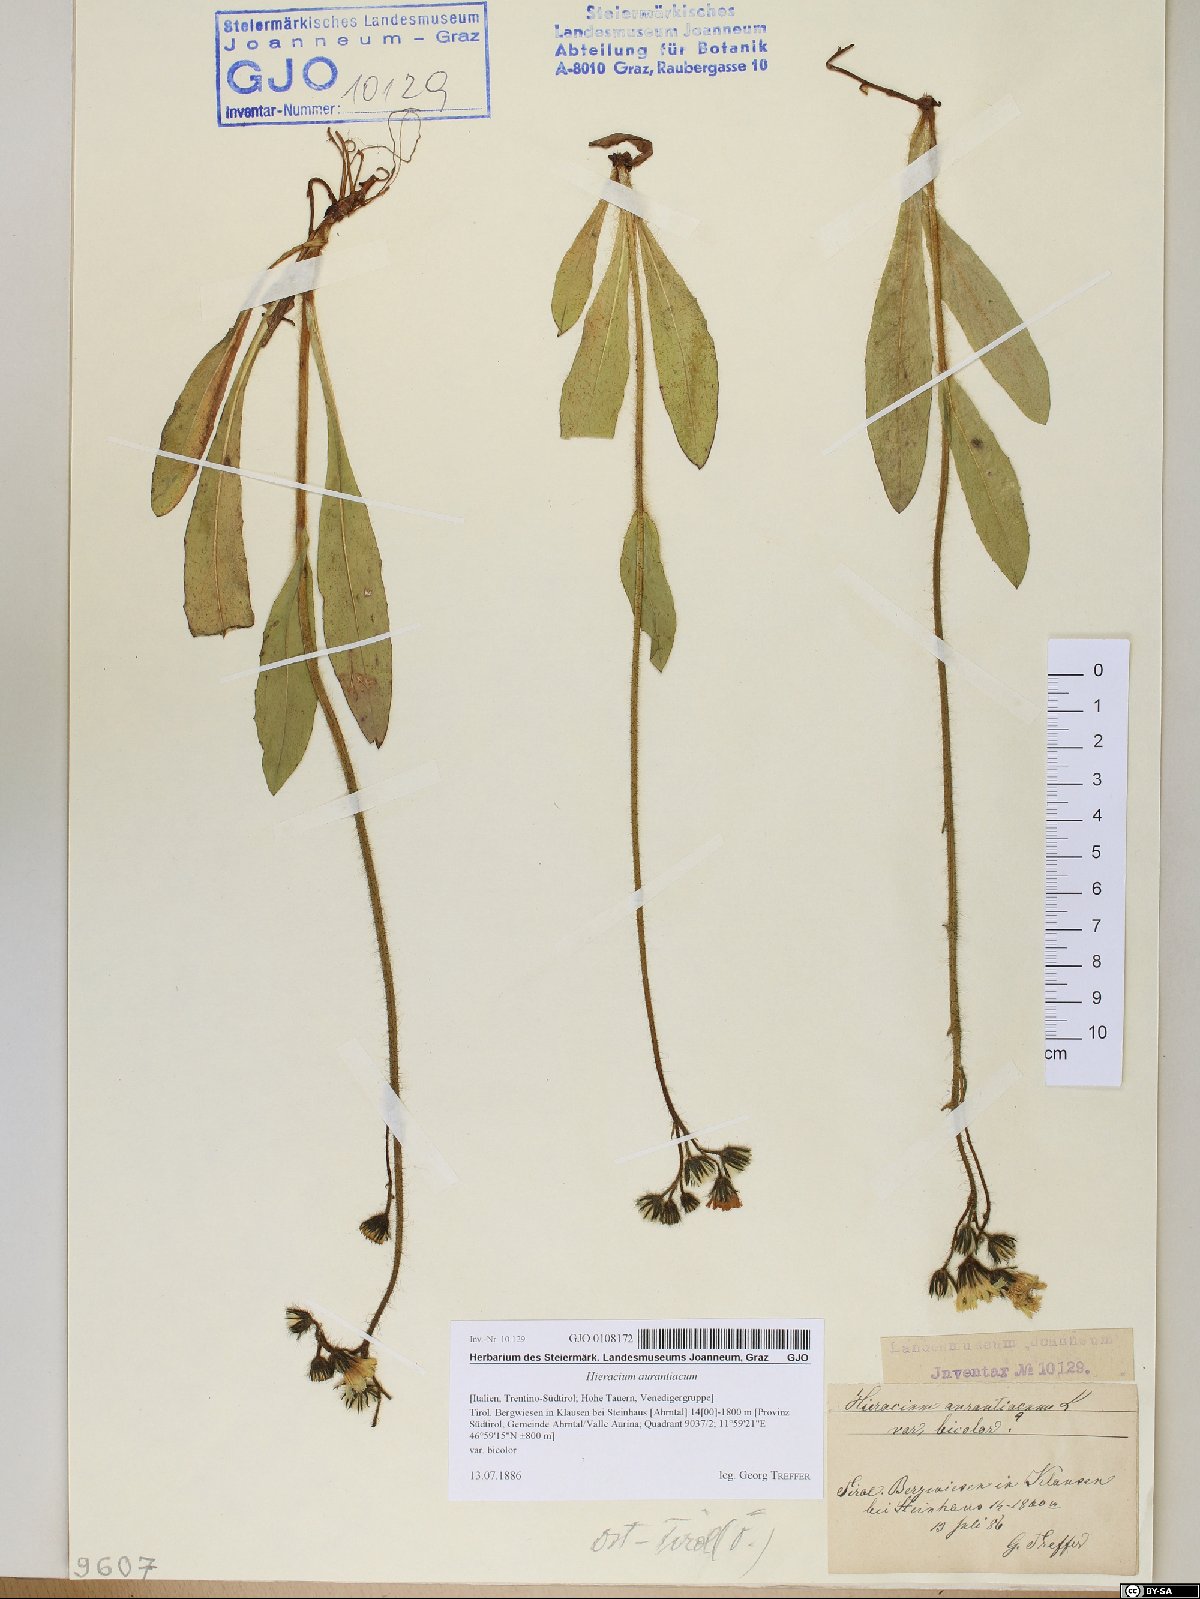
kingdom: Plantae
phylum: Tracheophyta
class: Magnoliopsida
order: Asterales
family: Asteraceae
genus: Pilosella
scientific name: Pilosella aurantiaca
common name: Fox-and-cubs
